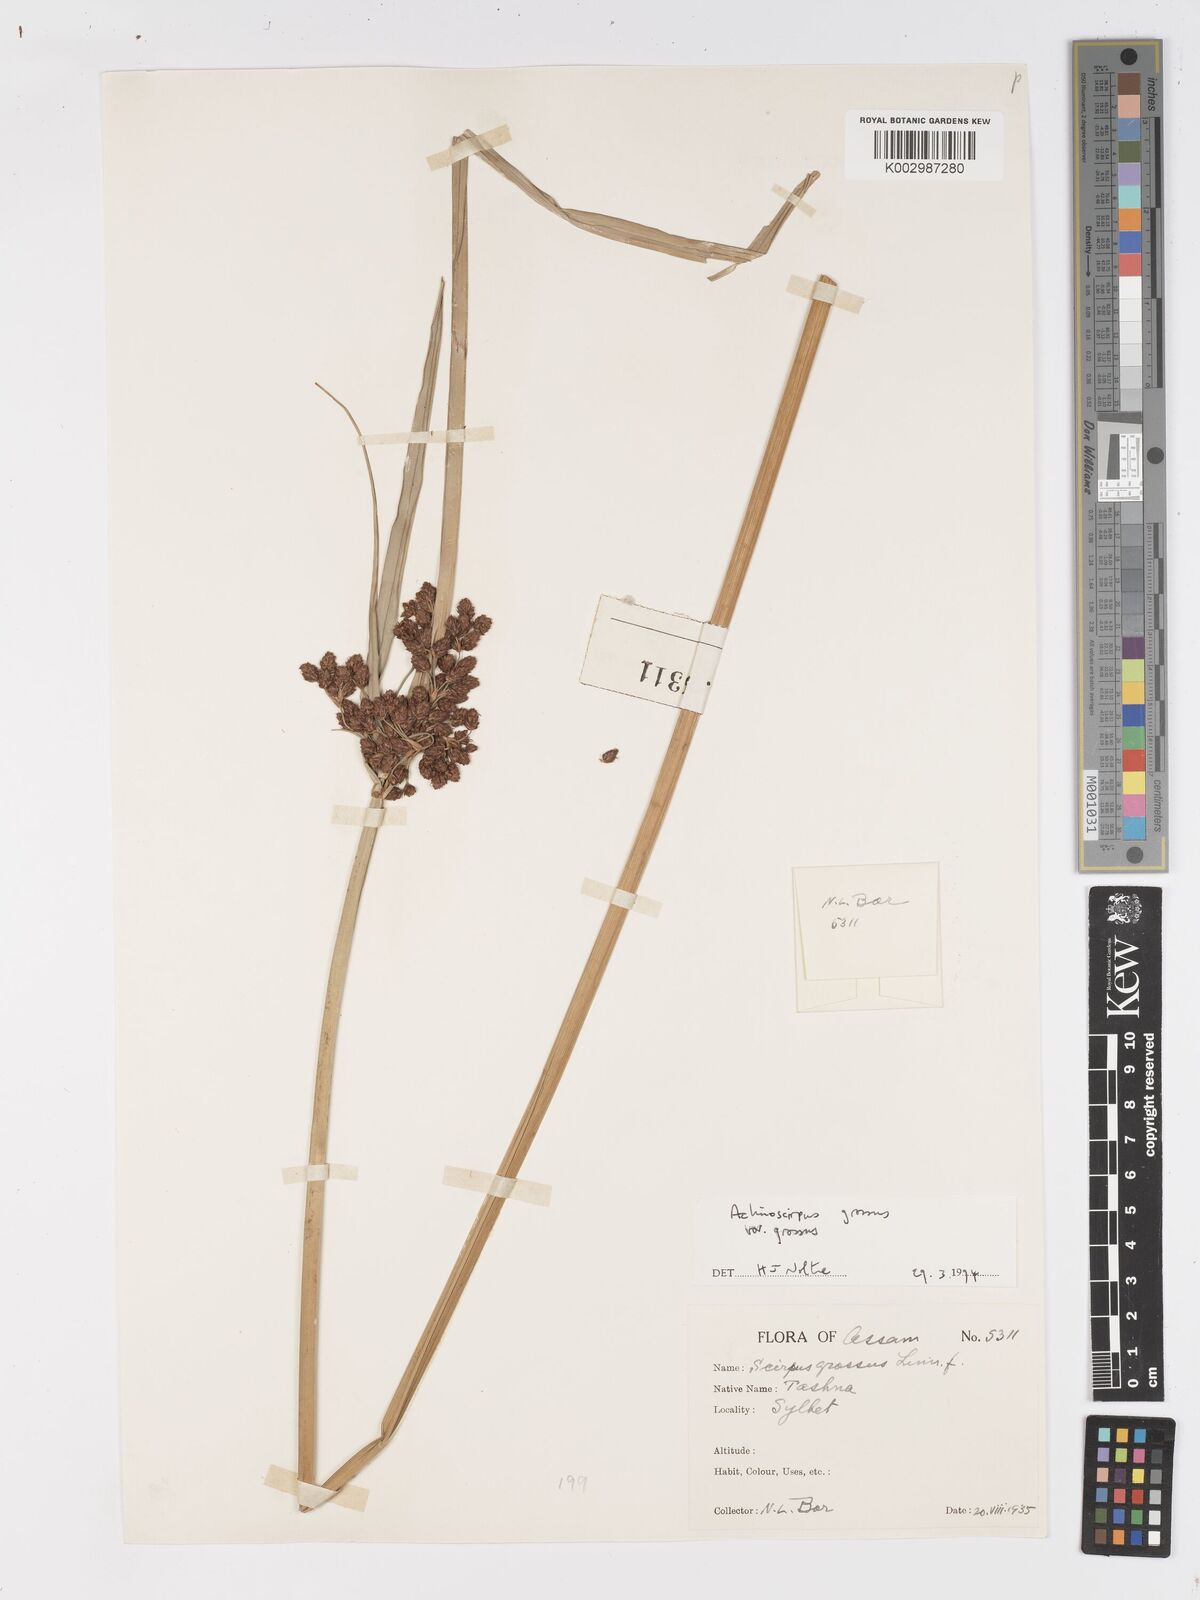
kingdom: Plantae
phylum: Tracheophyta
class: Liliopsida
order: Poales
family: Cyperaceae
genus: Actinoscirpus
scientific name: Actinoscirpus grossus
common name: Giant bur rush
